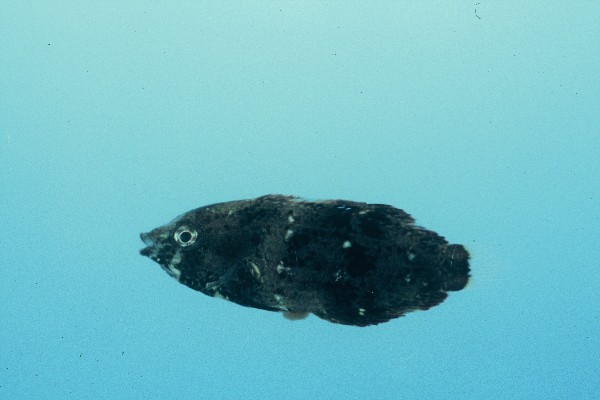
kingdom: Animalia
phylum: Chordata
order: Perciformes
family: Labridae
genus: Anampses
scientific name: Anampses
